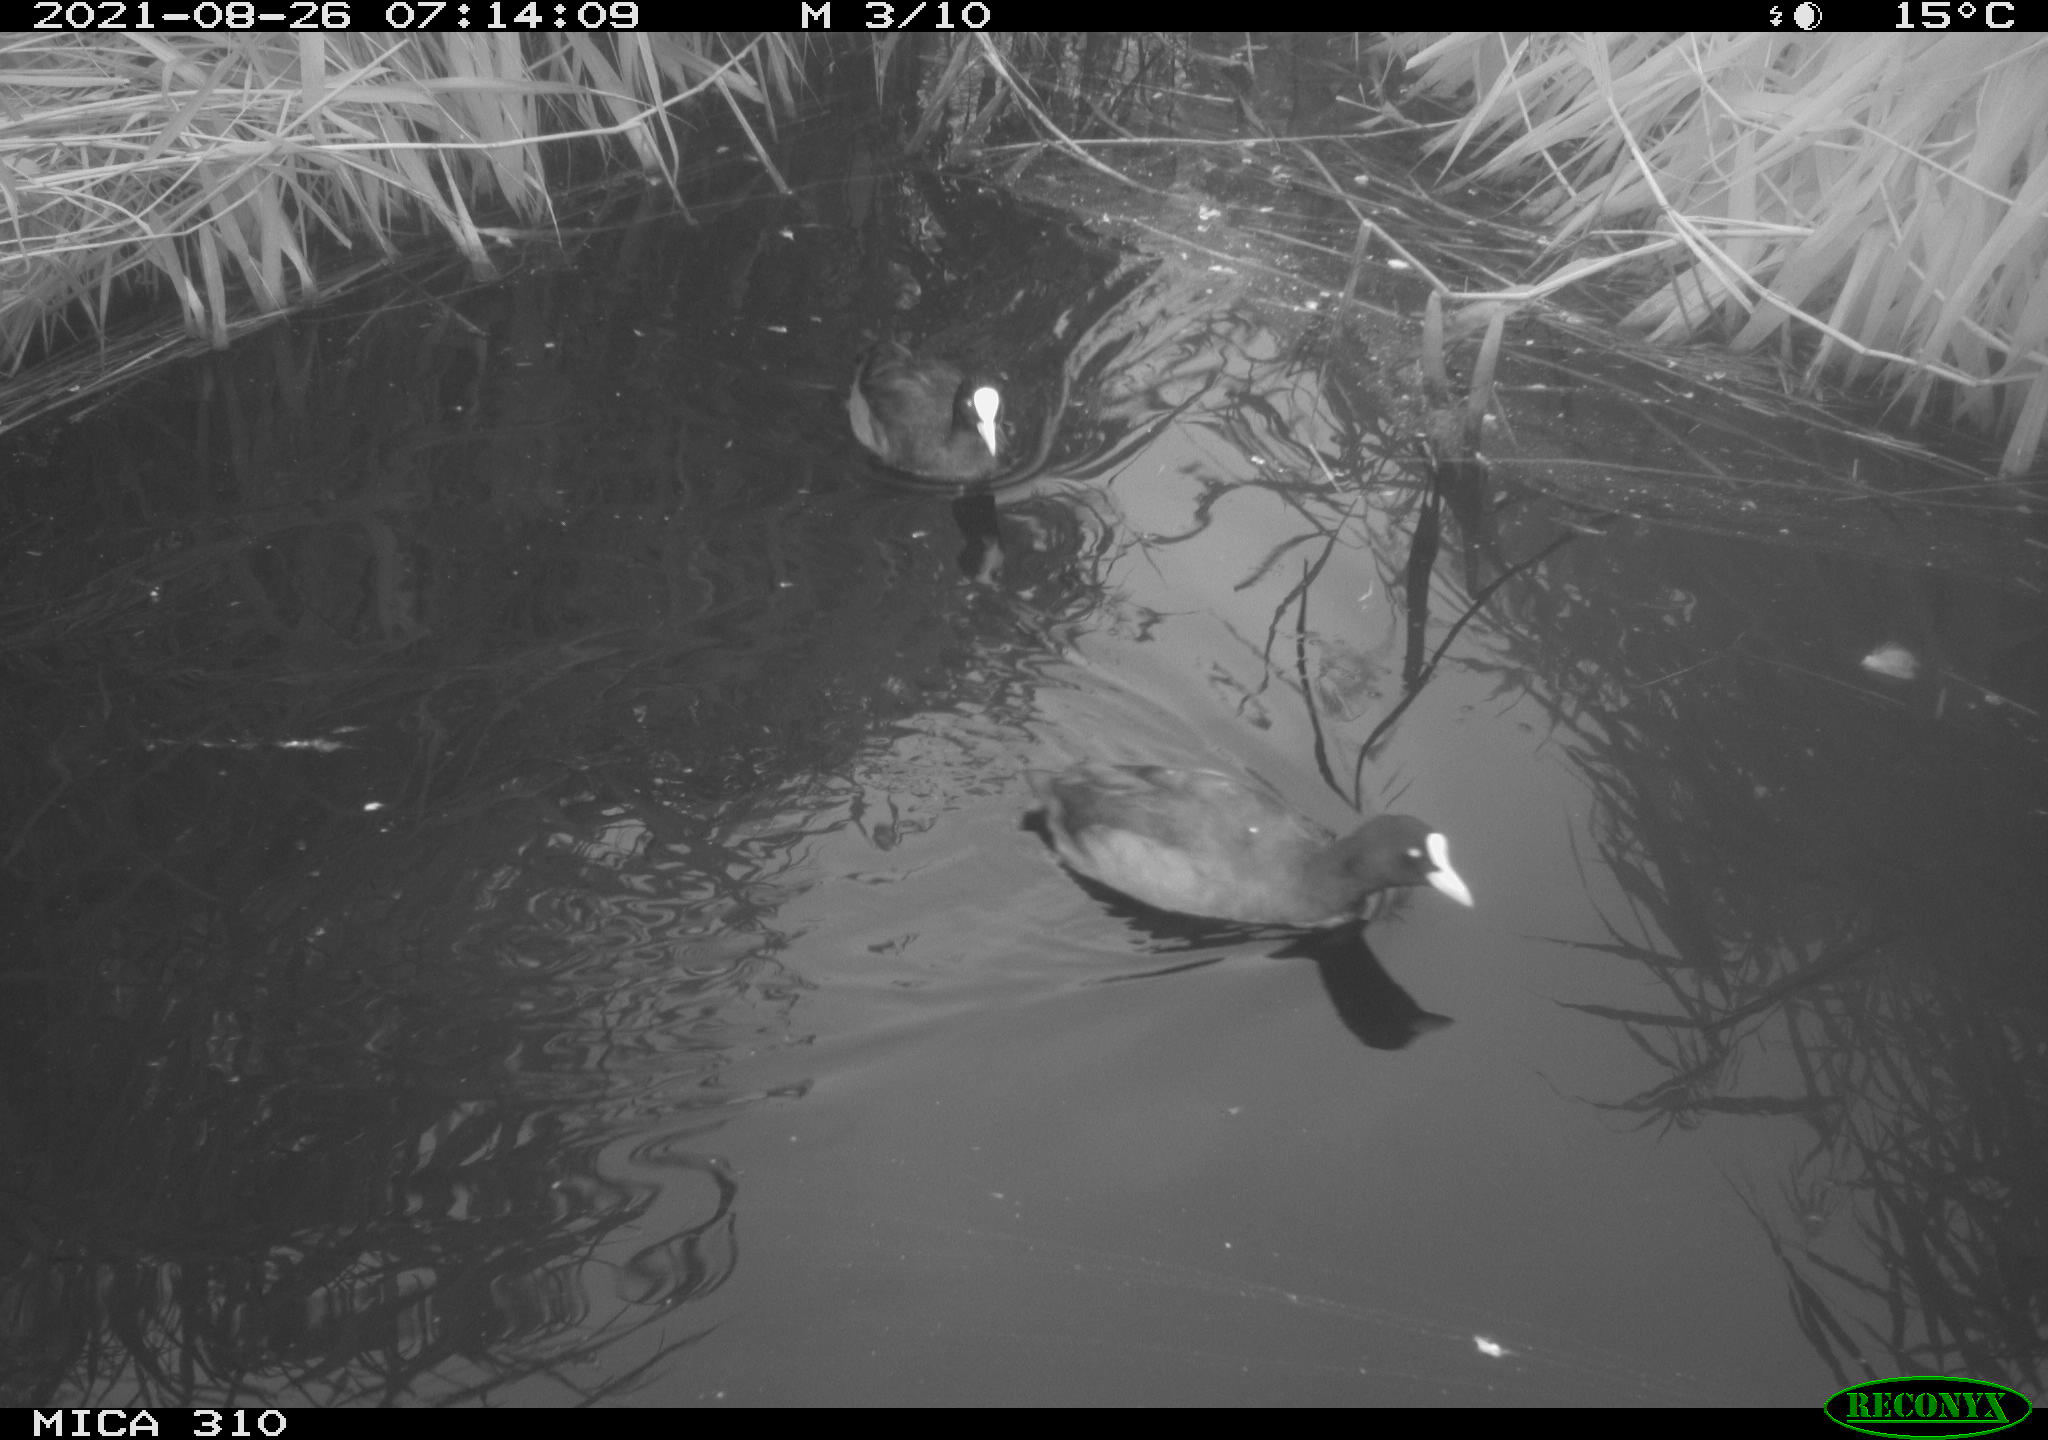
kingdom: Animalia
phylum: Chordata
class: Aves
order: Gruiformes
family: Rallidae
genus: Gallinula
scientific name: Gallinula chloropus
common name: Common moorhen
